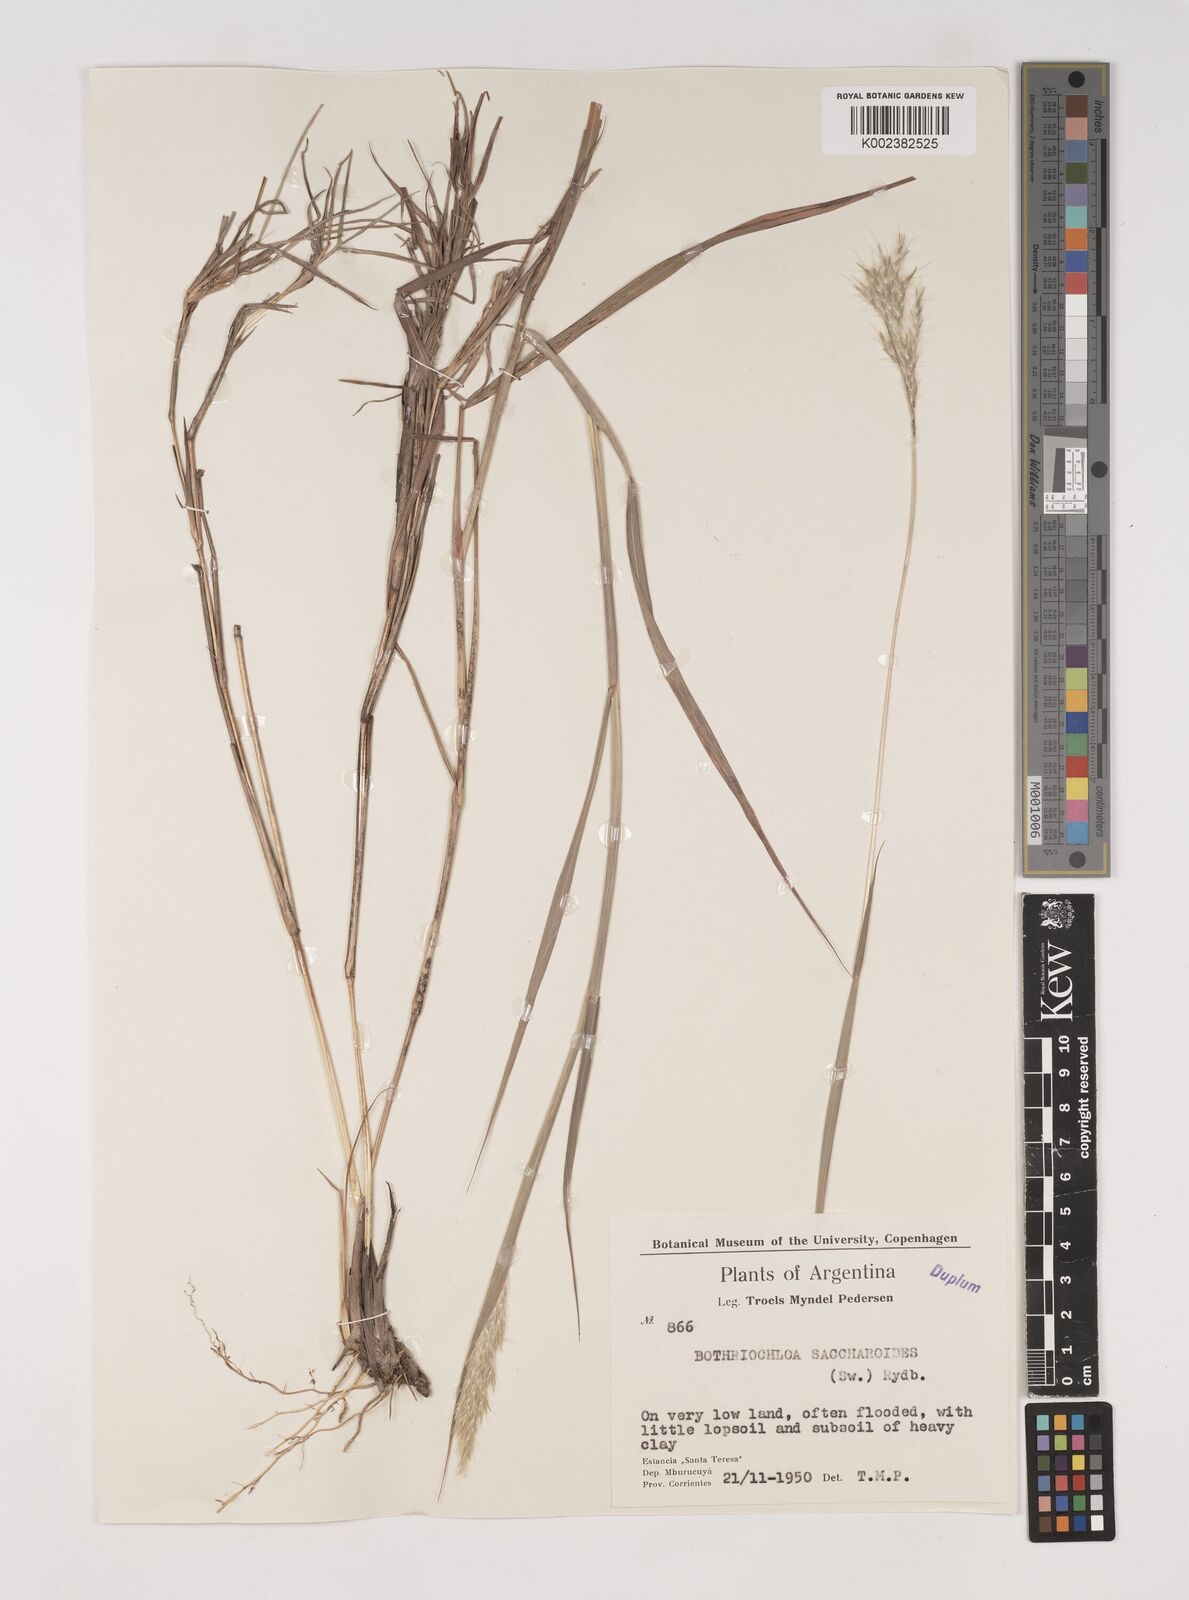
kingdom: Plantae
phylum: Tracheophyta
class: Liliopsida
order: Poales
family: Poaceae
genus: Bothriochloa
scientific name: Bothriochloa saccharoides
